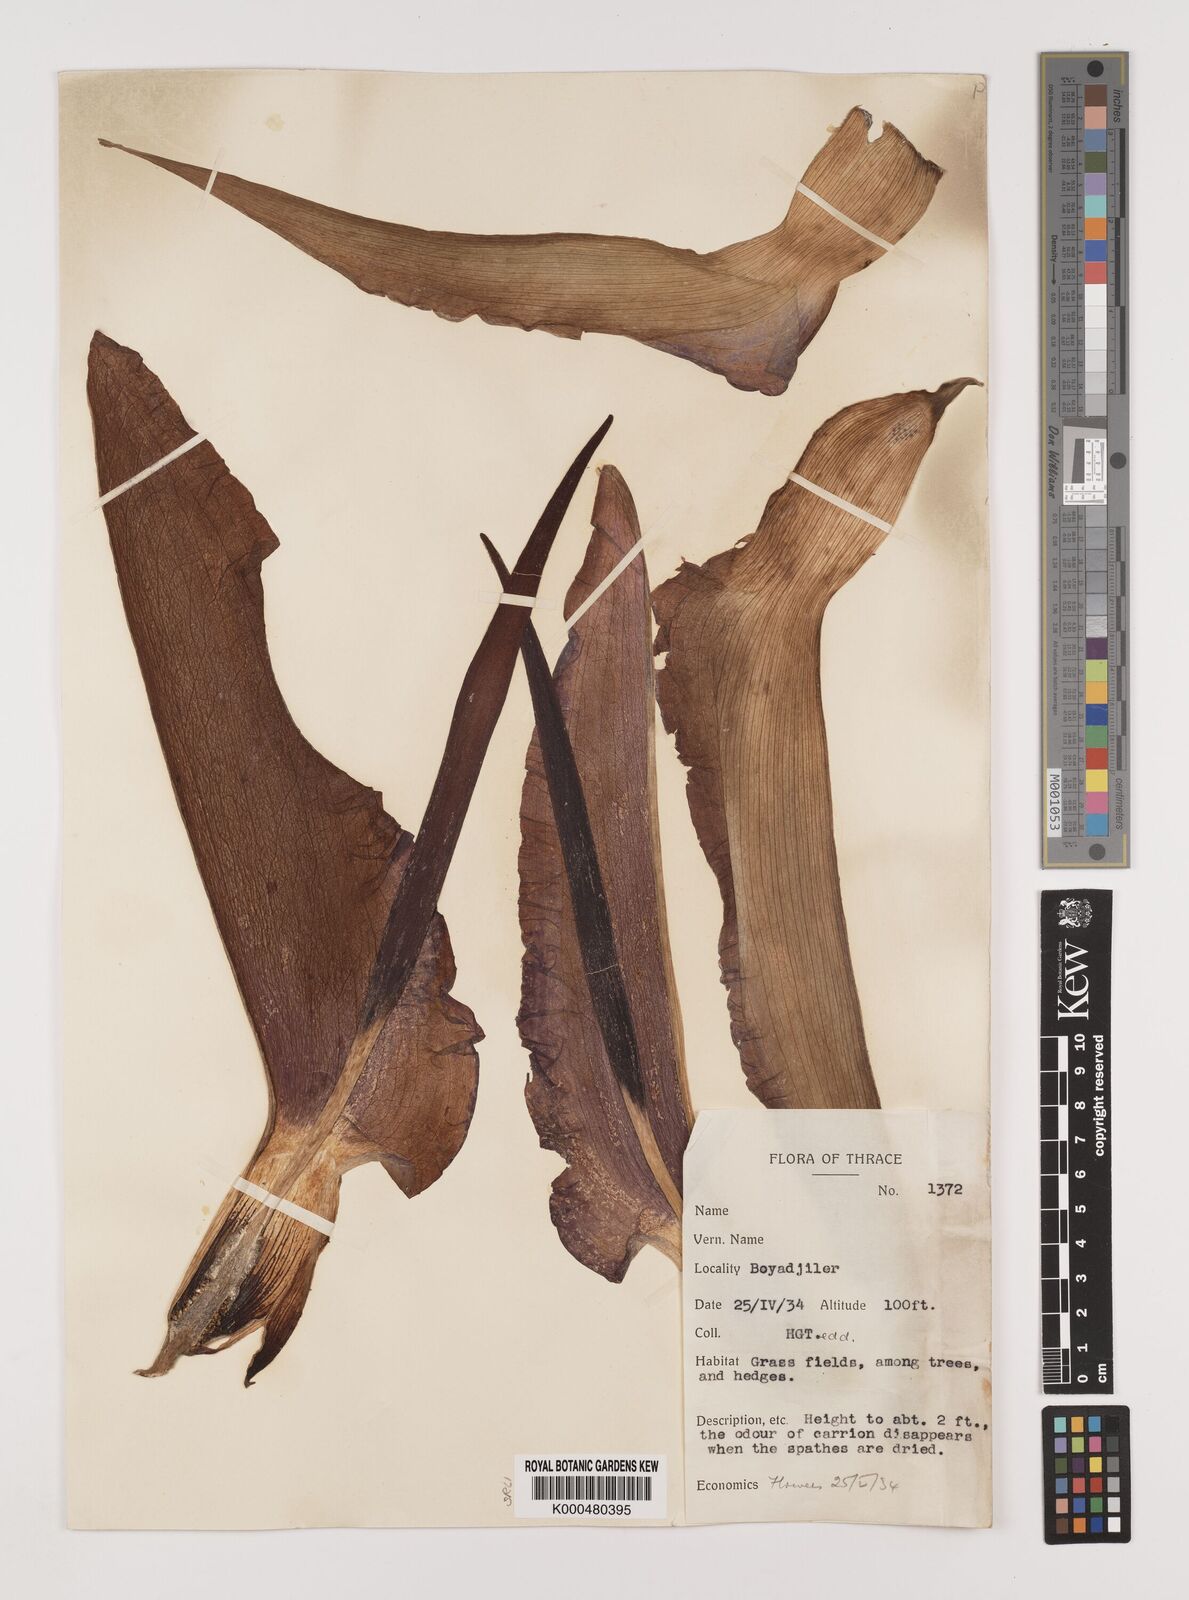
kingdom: Plantae
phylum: Tracheophyta
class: Liliopsida
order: Alismatales
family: Araceae
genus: Dracunculus
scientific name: Dracunculus vulgaris
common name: Dragon arum
